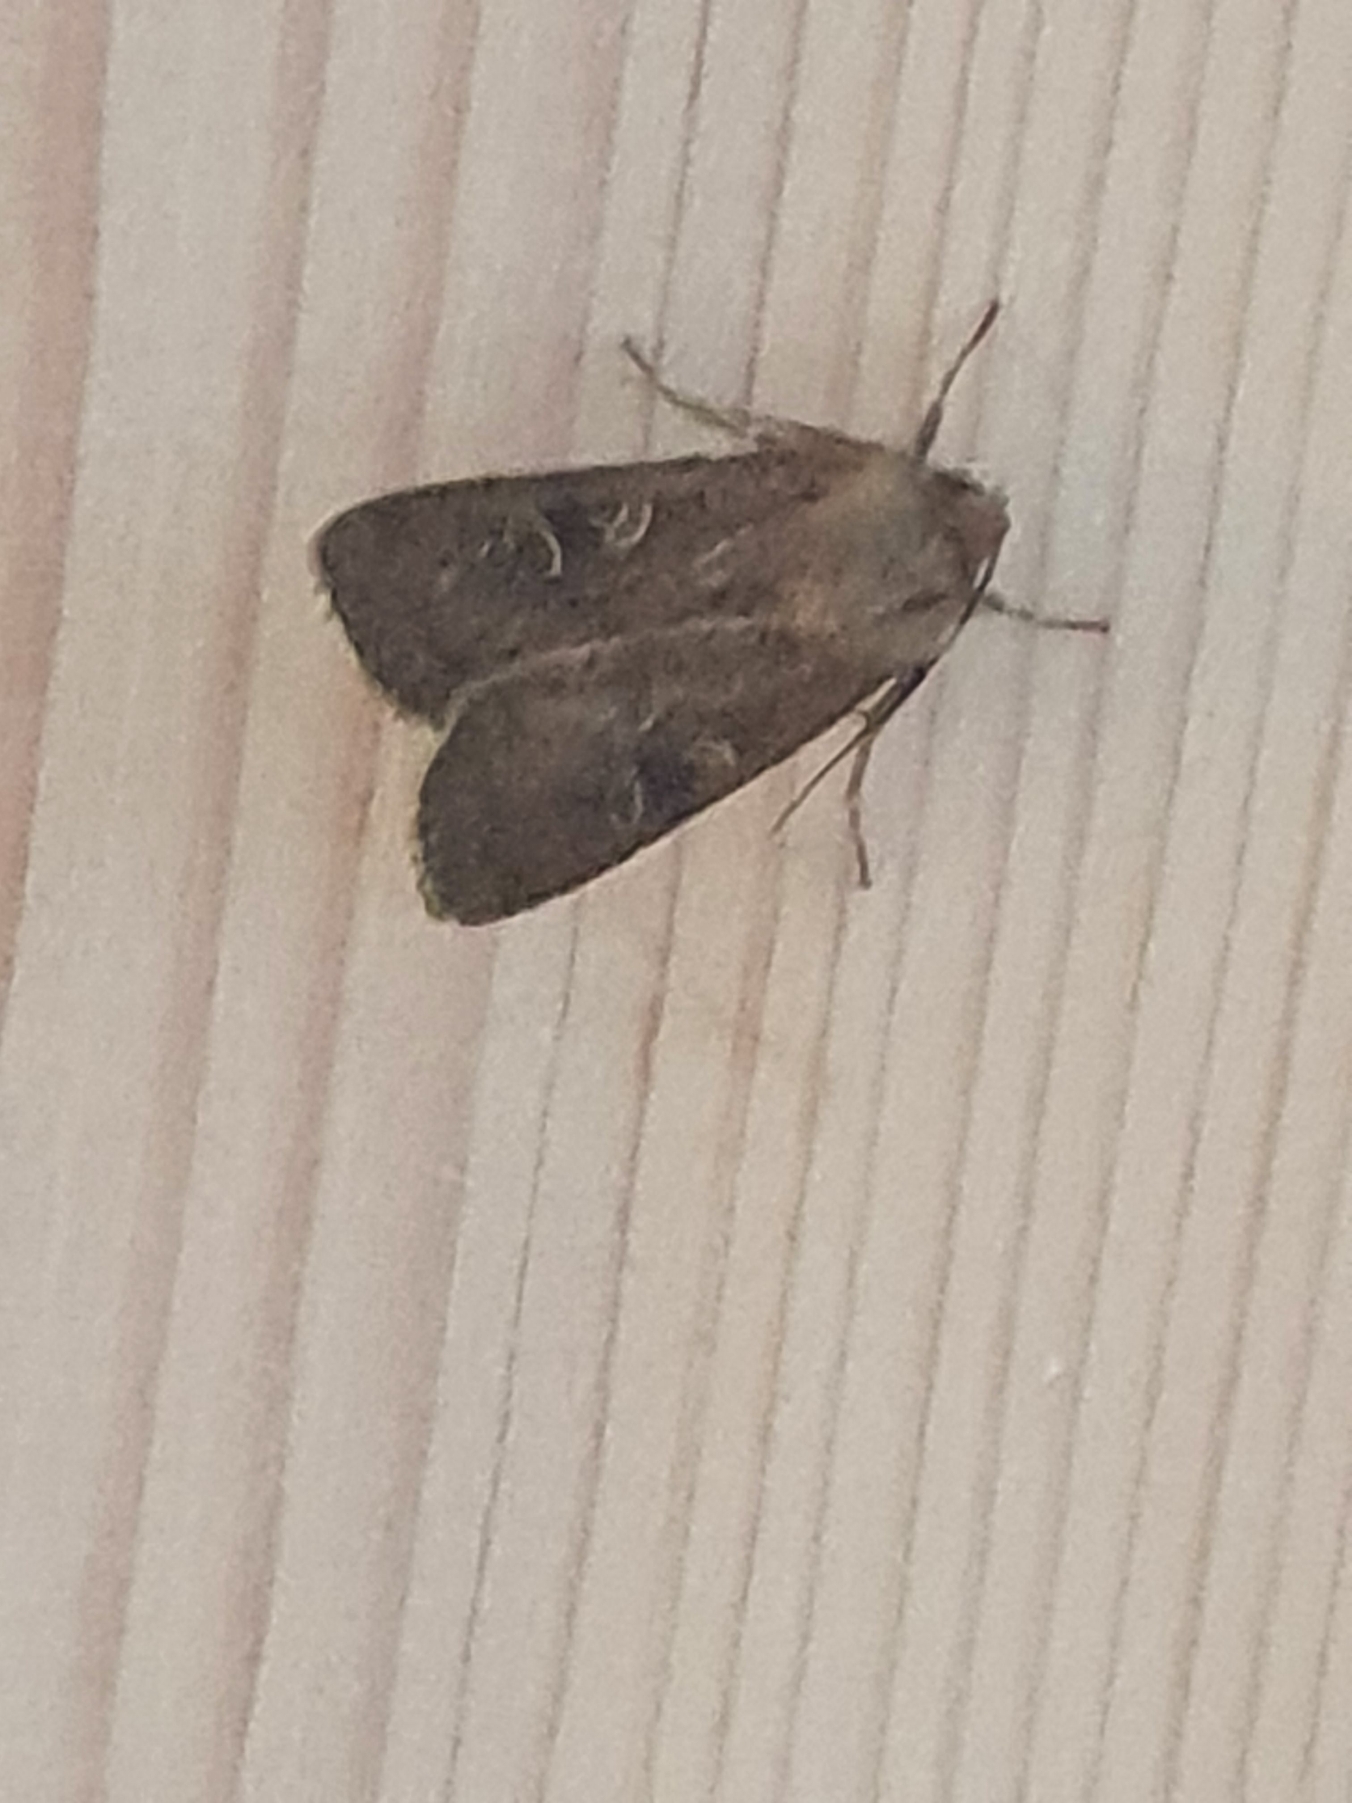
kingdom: Animalia
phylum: Arthropoda
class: Insecta
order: Lepidoptera
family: Noctuidae
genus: Xestia
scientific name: Xestia xanthographa
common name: Gulmærket glansugle
